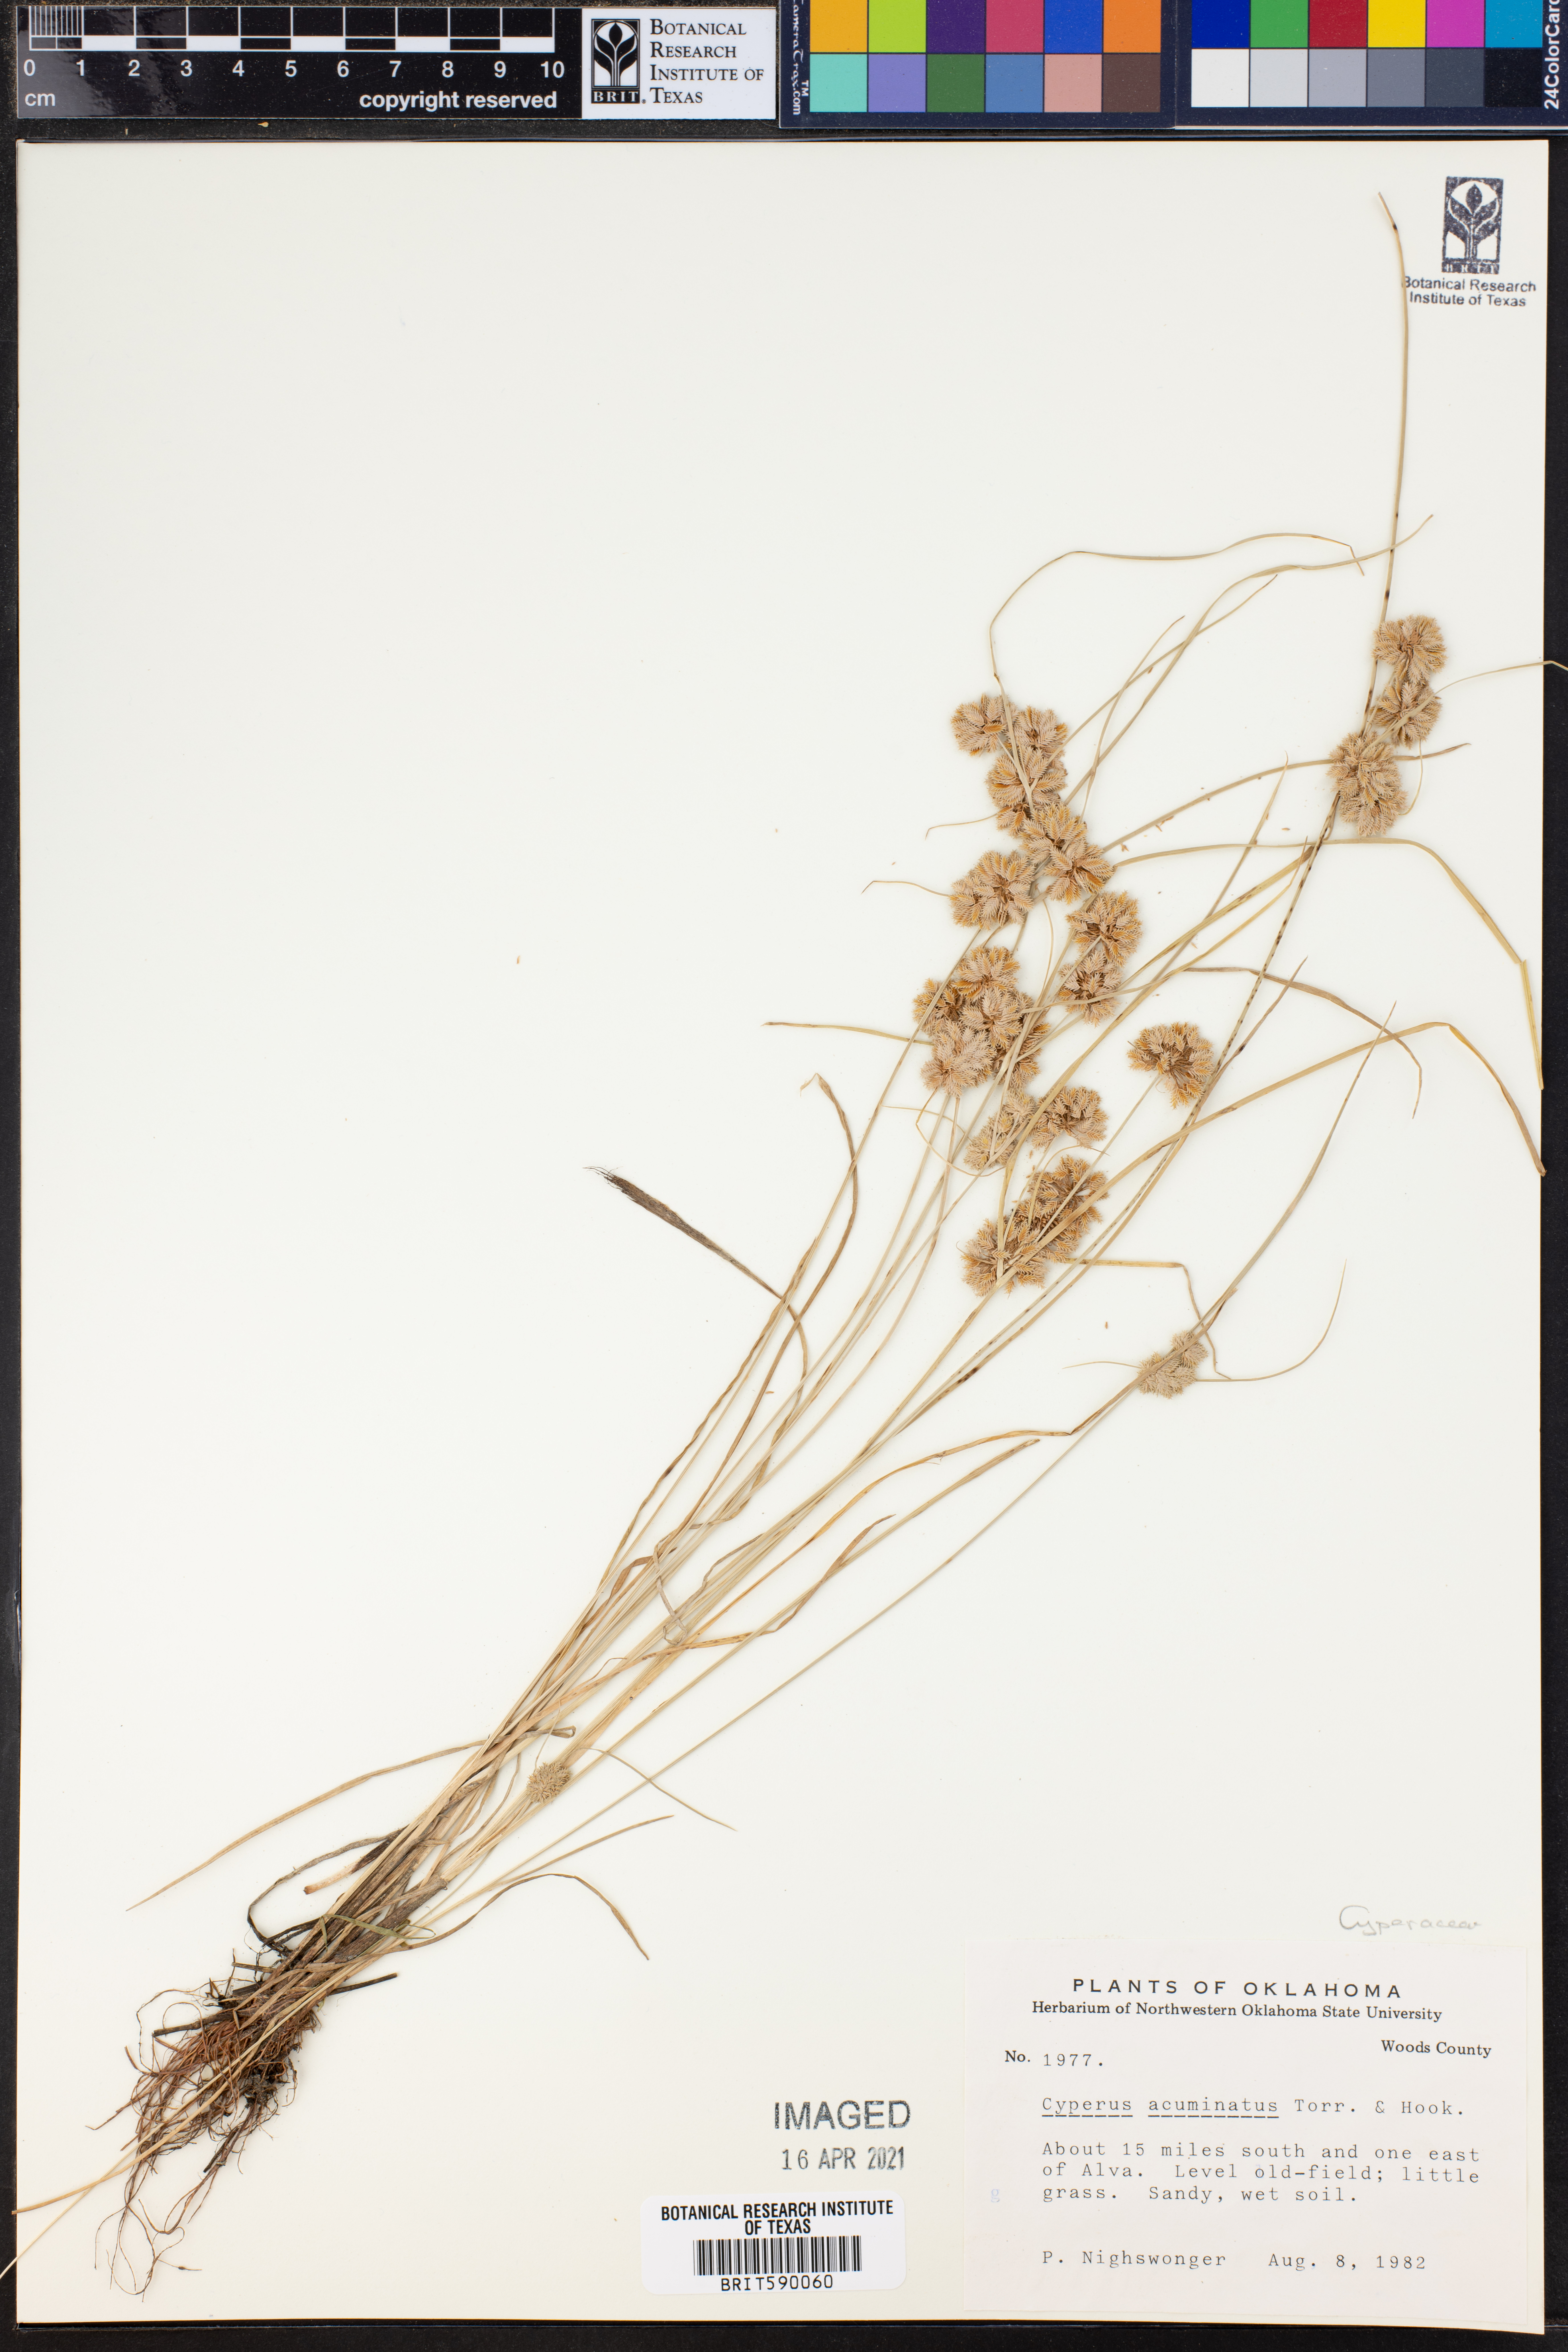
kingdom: Plantae
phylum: Tracheophyta
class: Liliopsida
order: Poales
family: Cyperaceae
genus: Cyperus
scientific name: Cyperus acuminatus
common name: Short-pointed cyperus
